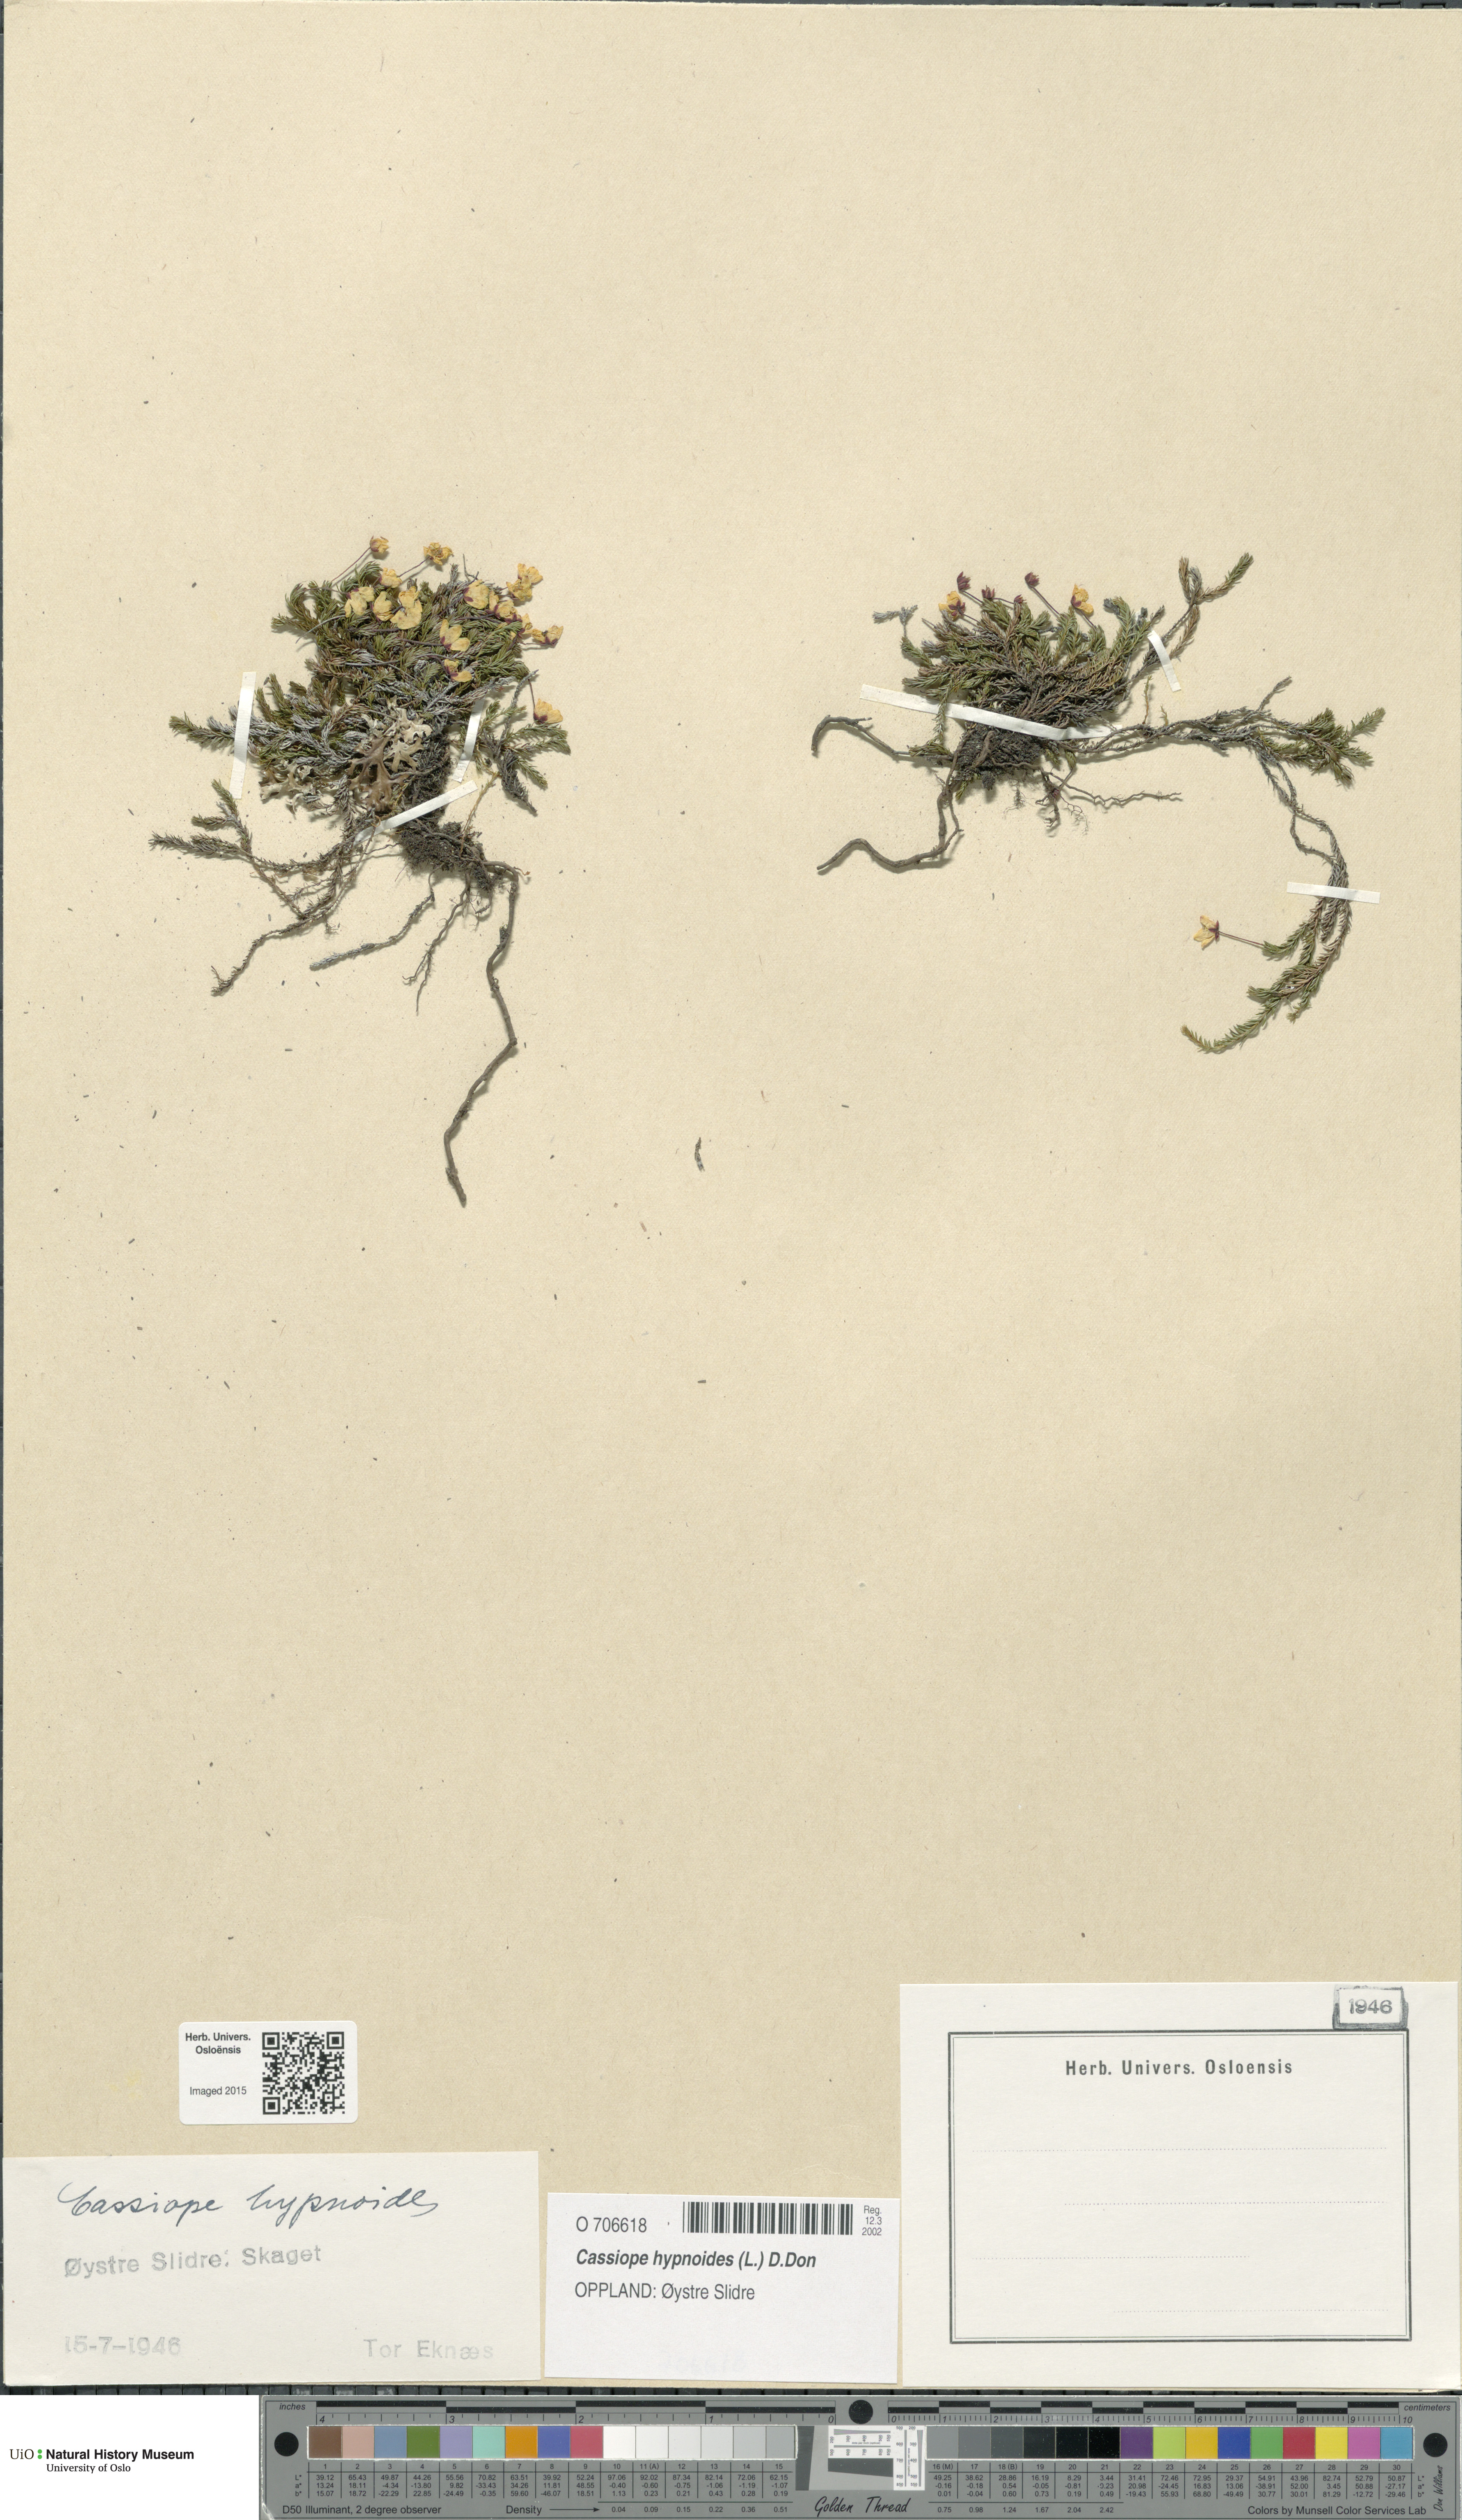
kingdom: Plantae
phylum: Tracheophyta
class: Magnoliopsida
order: Ericales
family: Ericaceae
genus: Harrimanella
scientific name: Harrimanella hypnoides
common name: Moss bell heather
